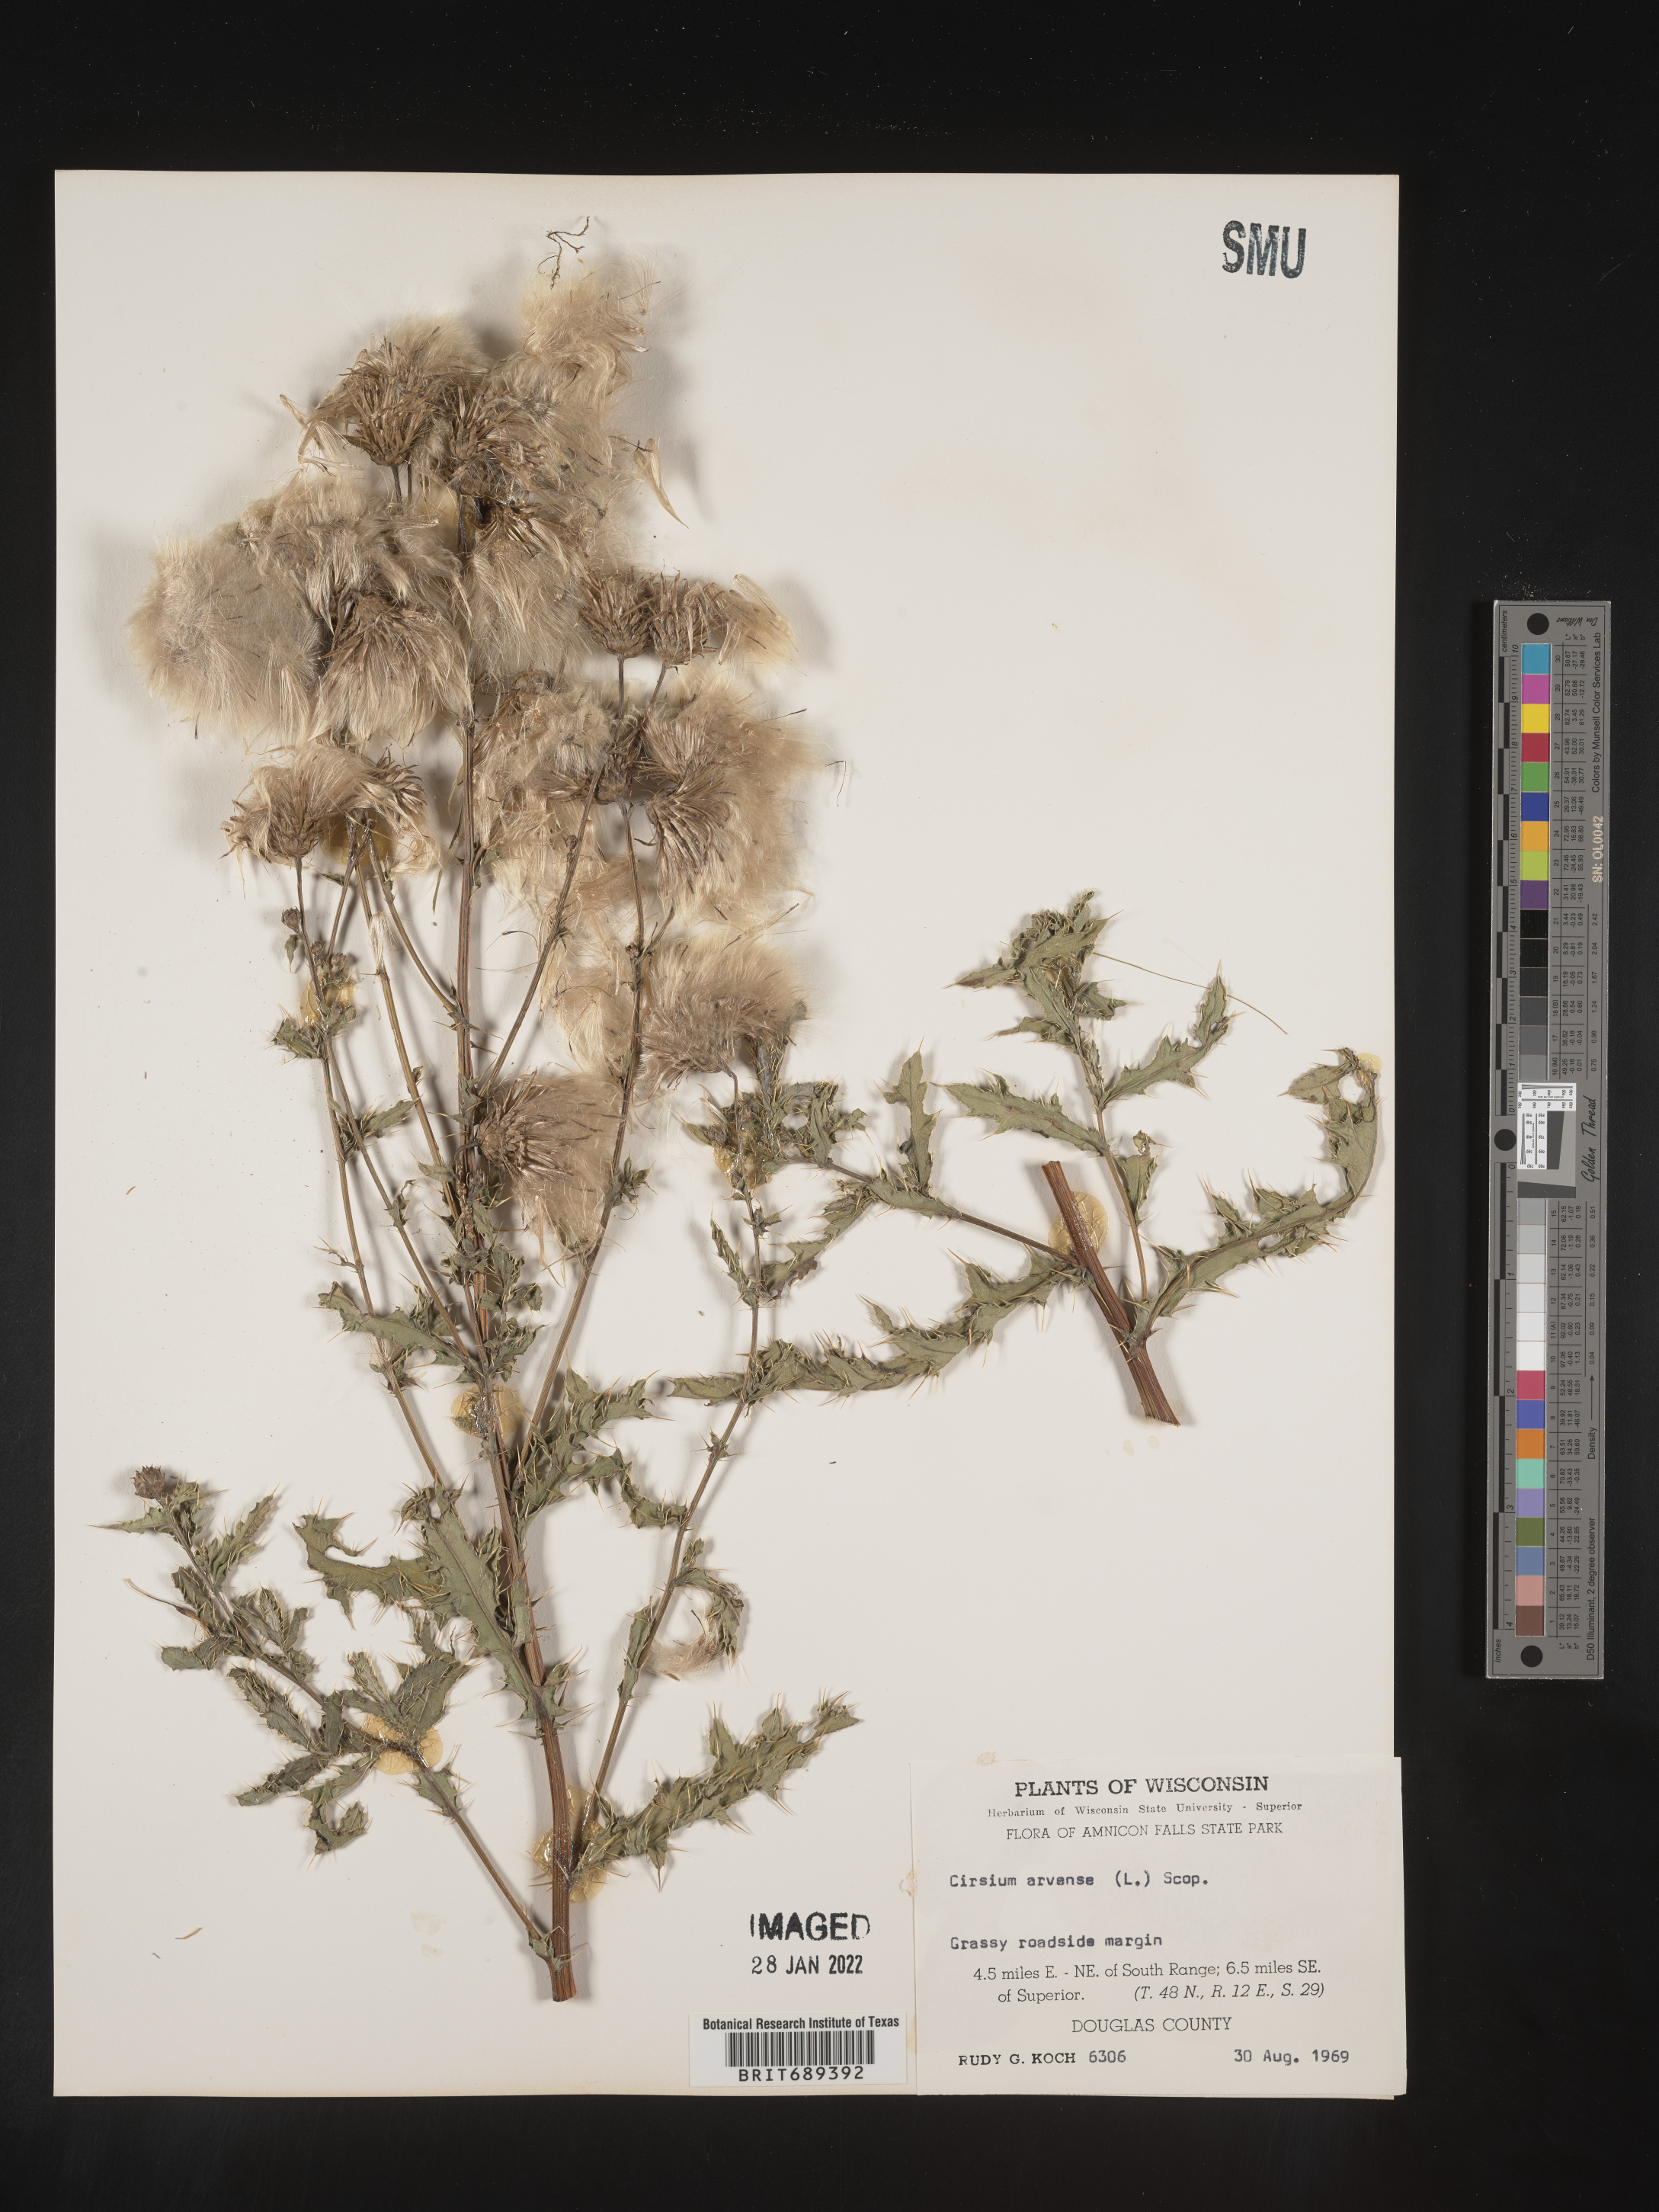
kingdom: Plantae
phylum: Tracheophyta
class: Magnoliopsida
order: Asterales
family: Asteraceae
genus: Cirsium
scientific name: Cirsium arvense
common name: Creeping thistle
